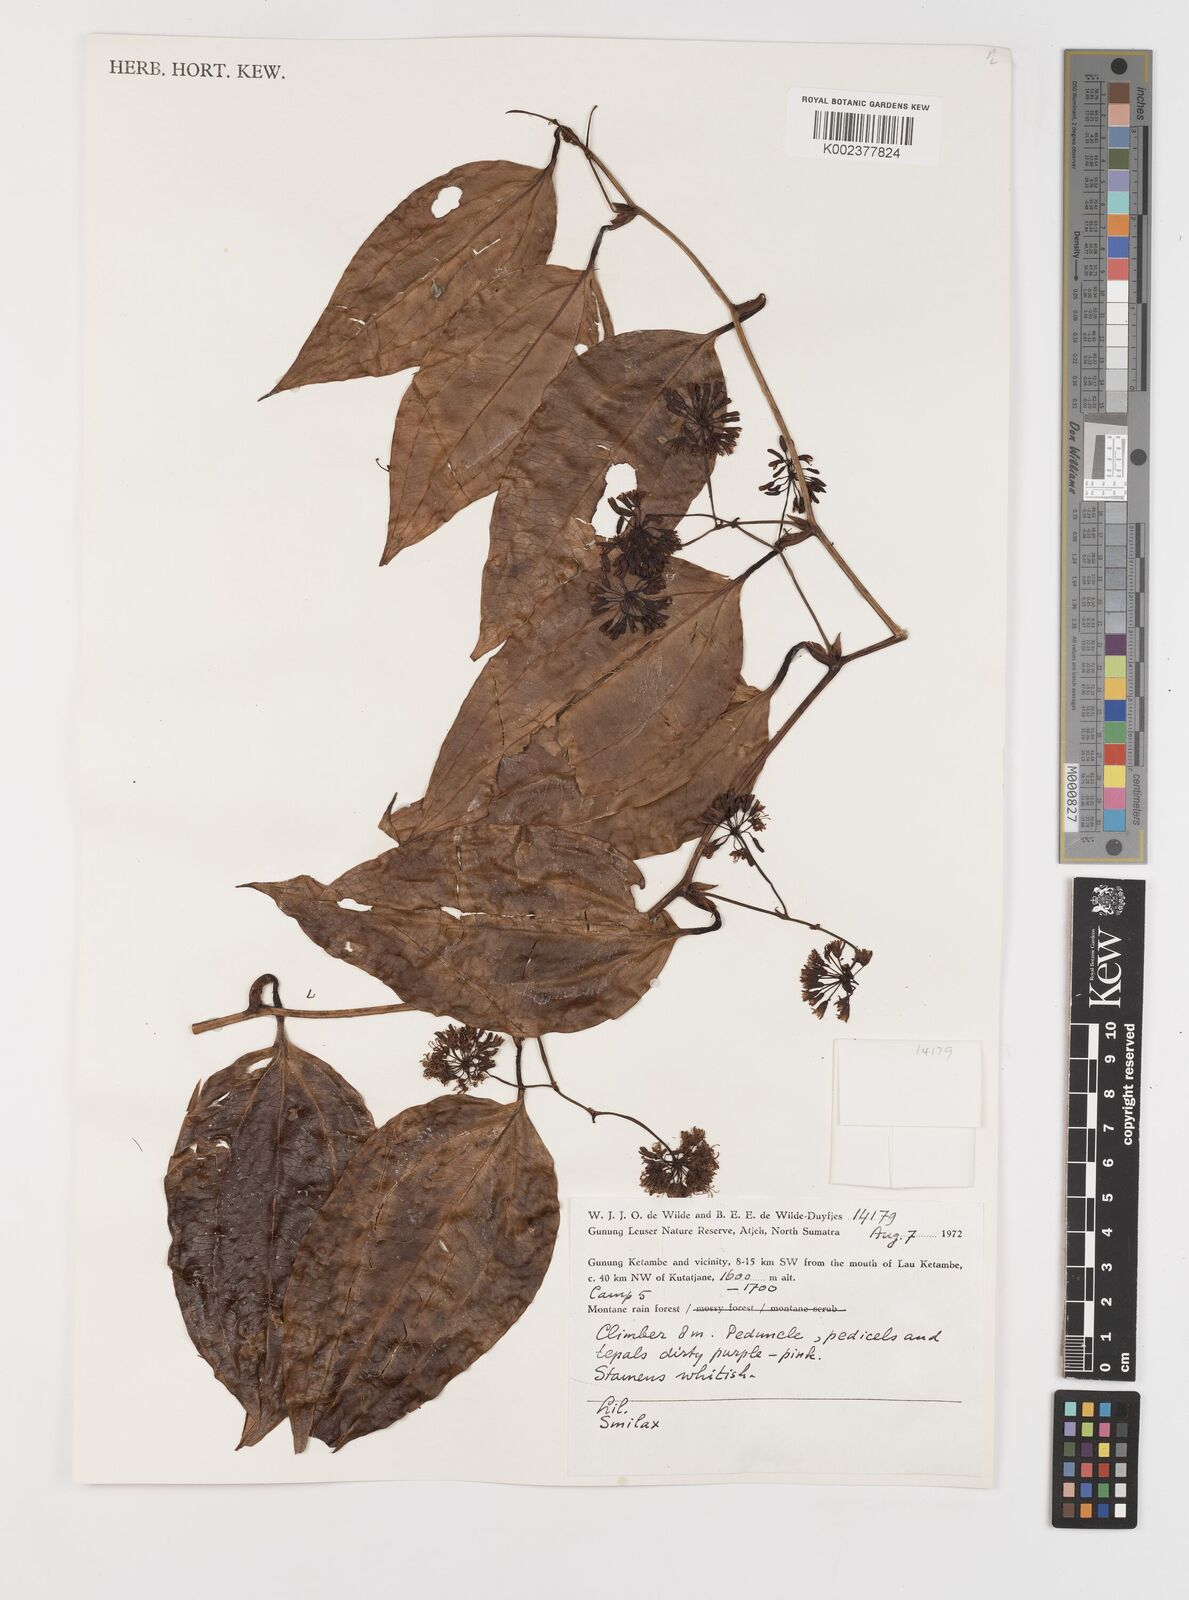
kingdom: Plantae
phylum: Tracheophyta
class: Liliopsida
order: Liliales
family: Smilacaceae
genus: Smilax
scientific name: Smilax
